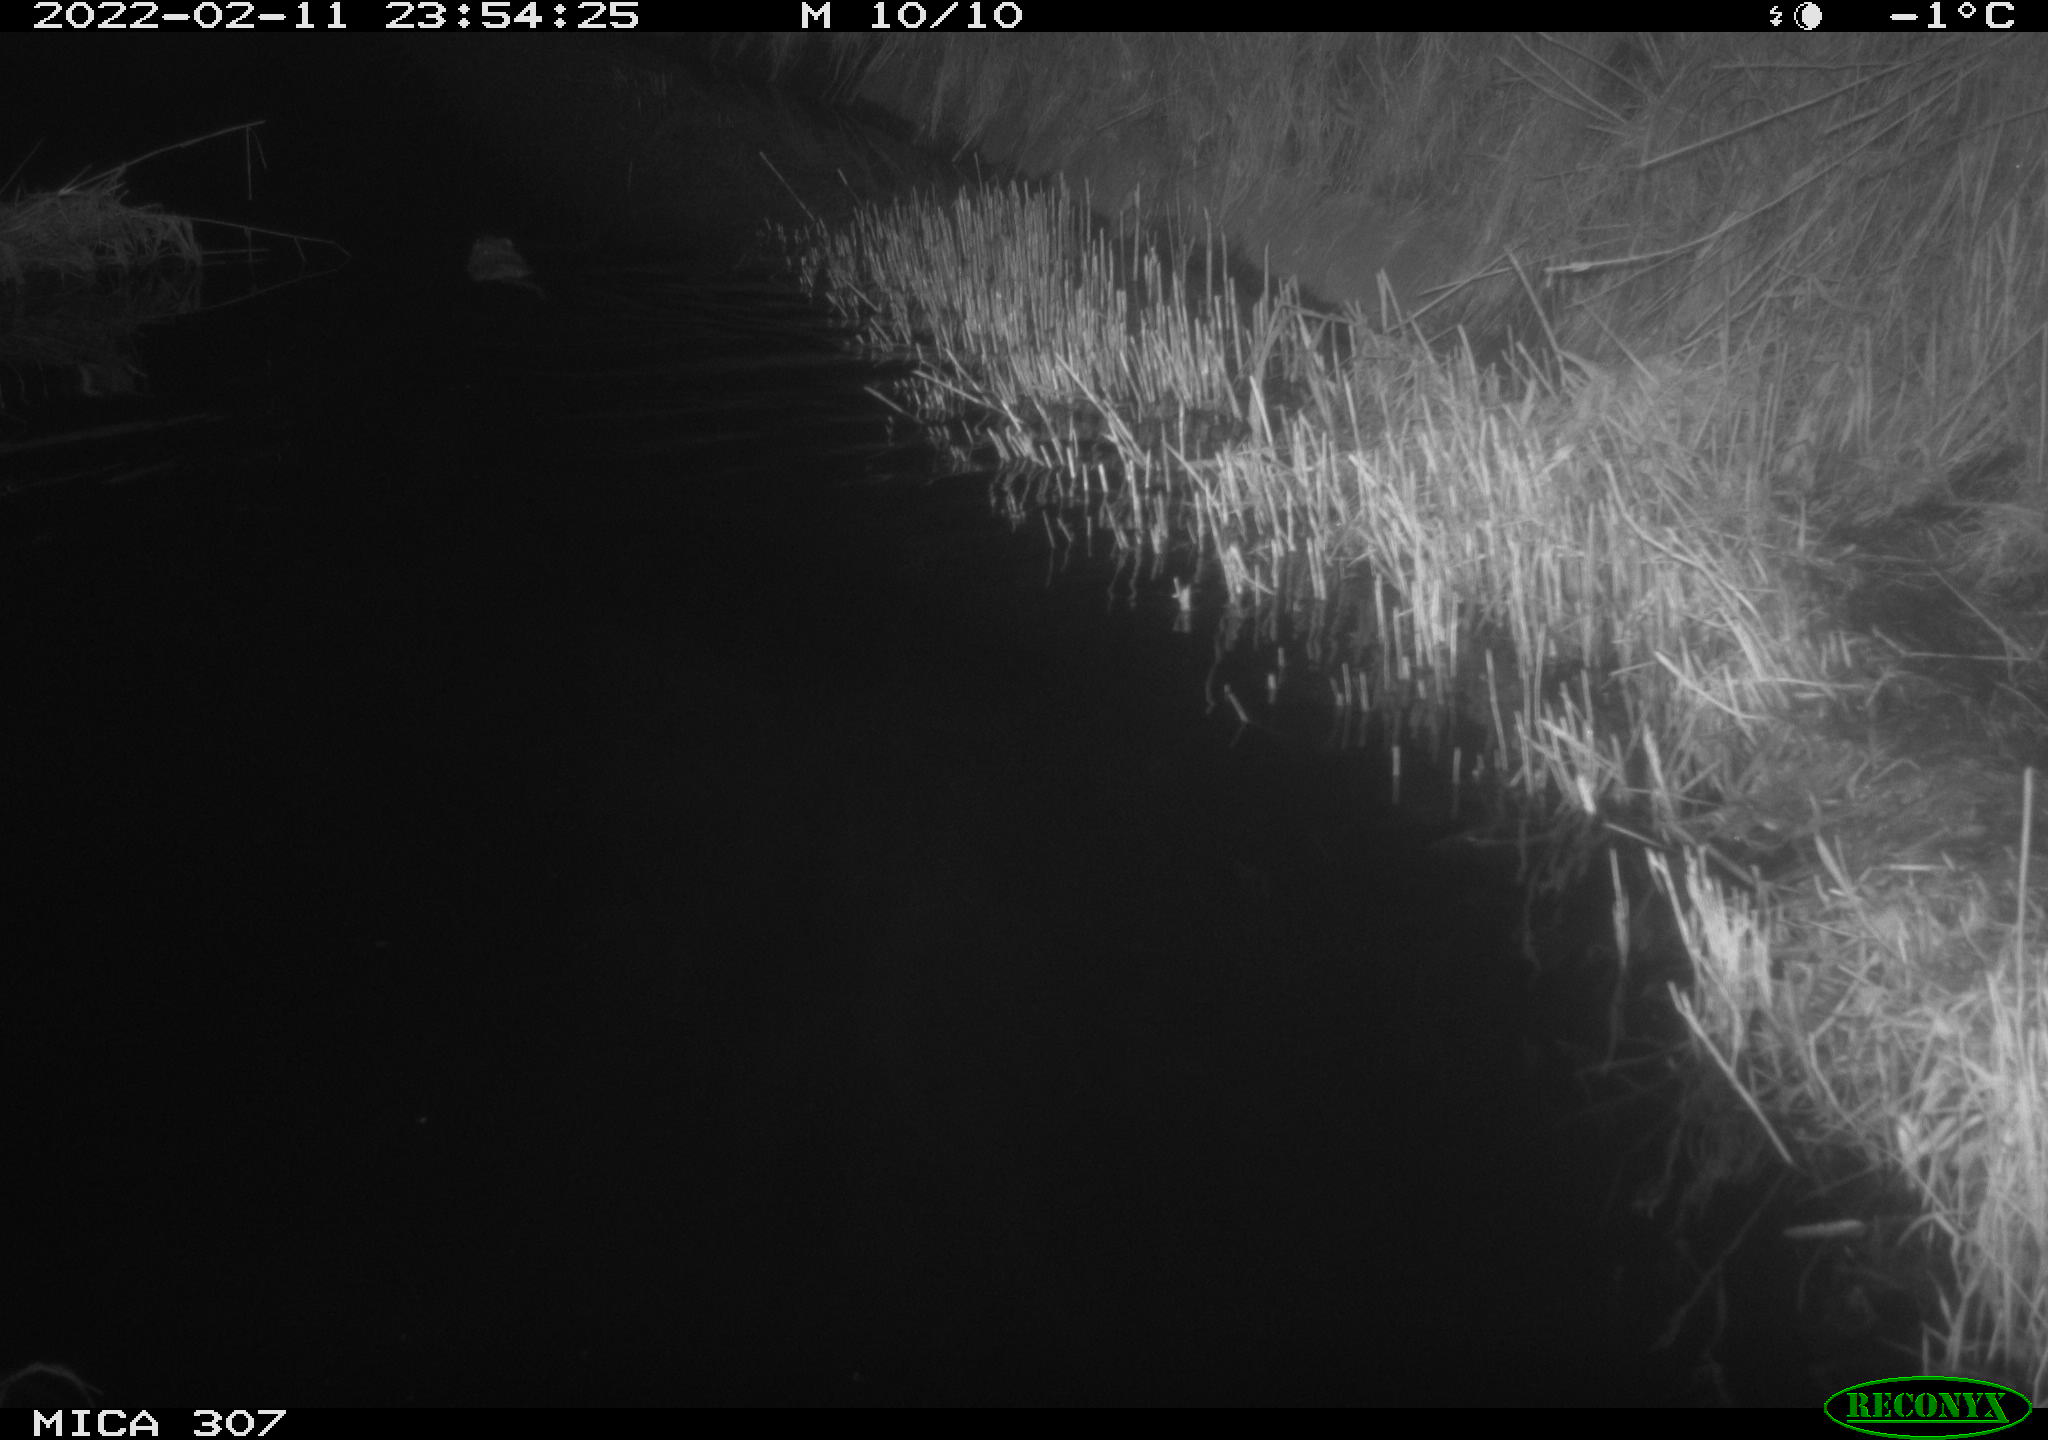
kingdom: Animalia
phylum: Chordata
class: Mammalia
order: Rodentia
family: Cricetidae
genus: Ondatra
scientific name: Ondatra zibethicus
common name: Muskrat
